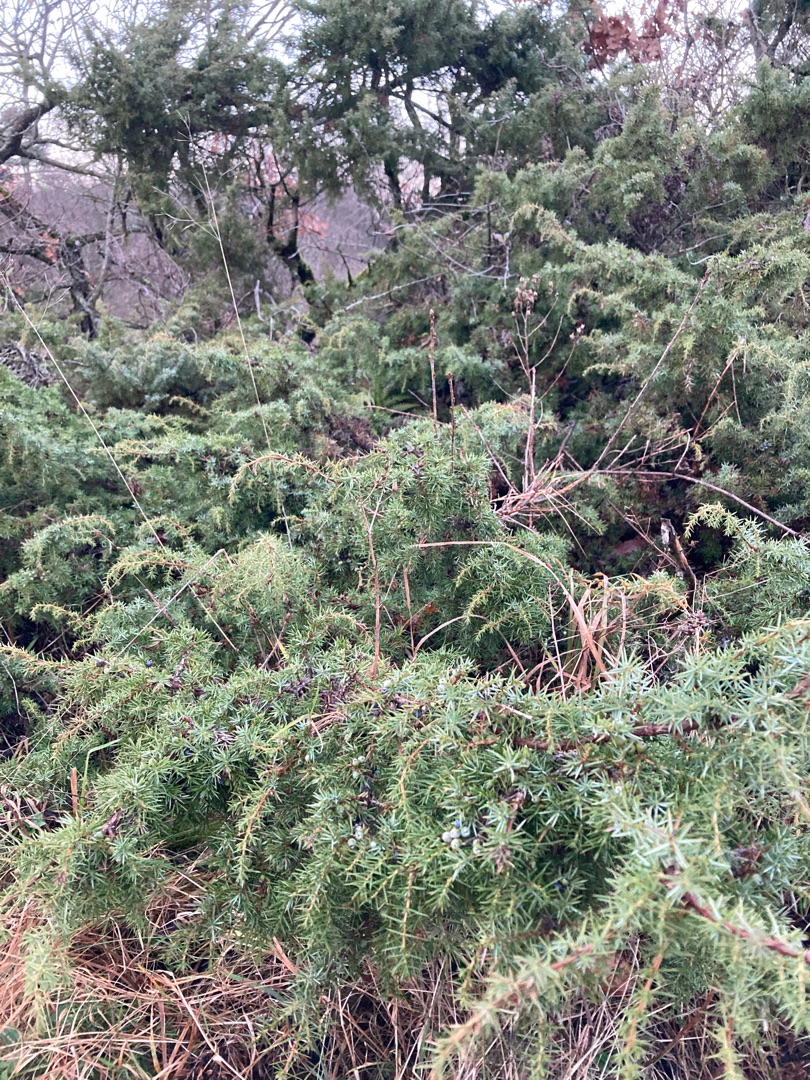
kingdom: Plantae
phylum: Tracheophyta
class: Pinopsida
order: Pinales
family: Cupressaceae
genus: Juniperus
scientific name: Juniperus communis
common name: Almindelig ene
